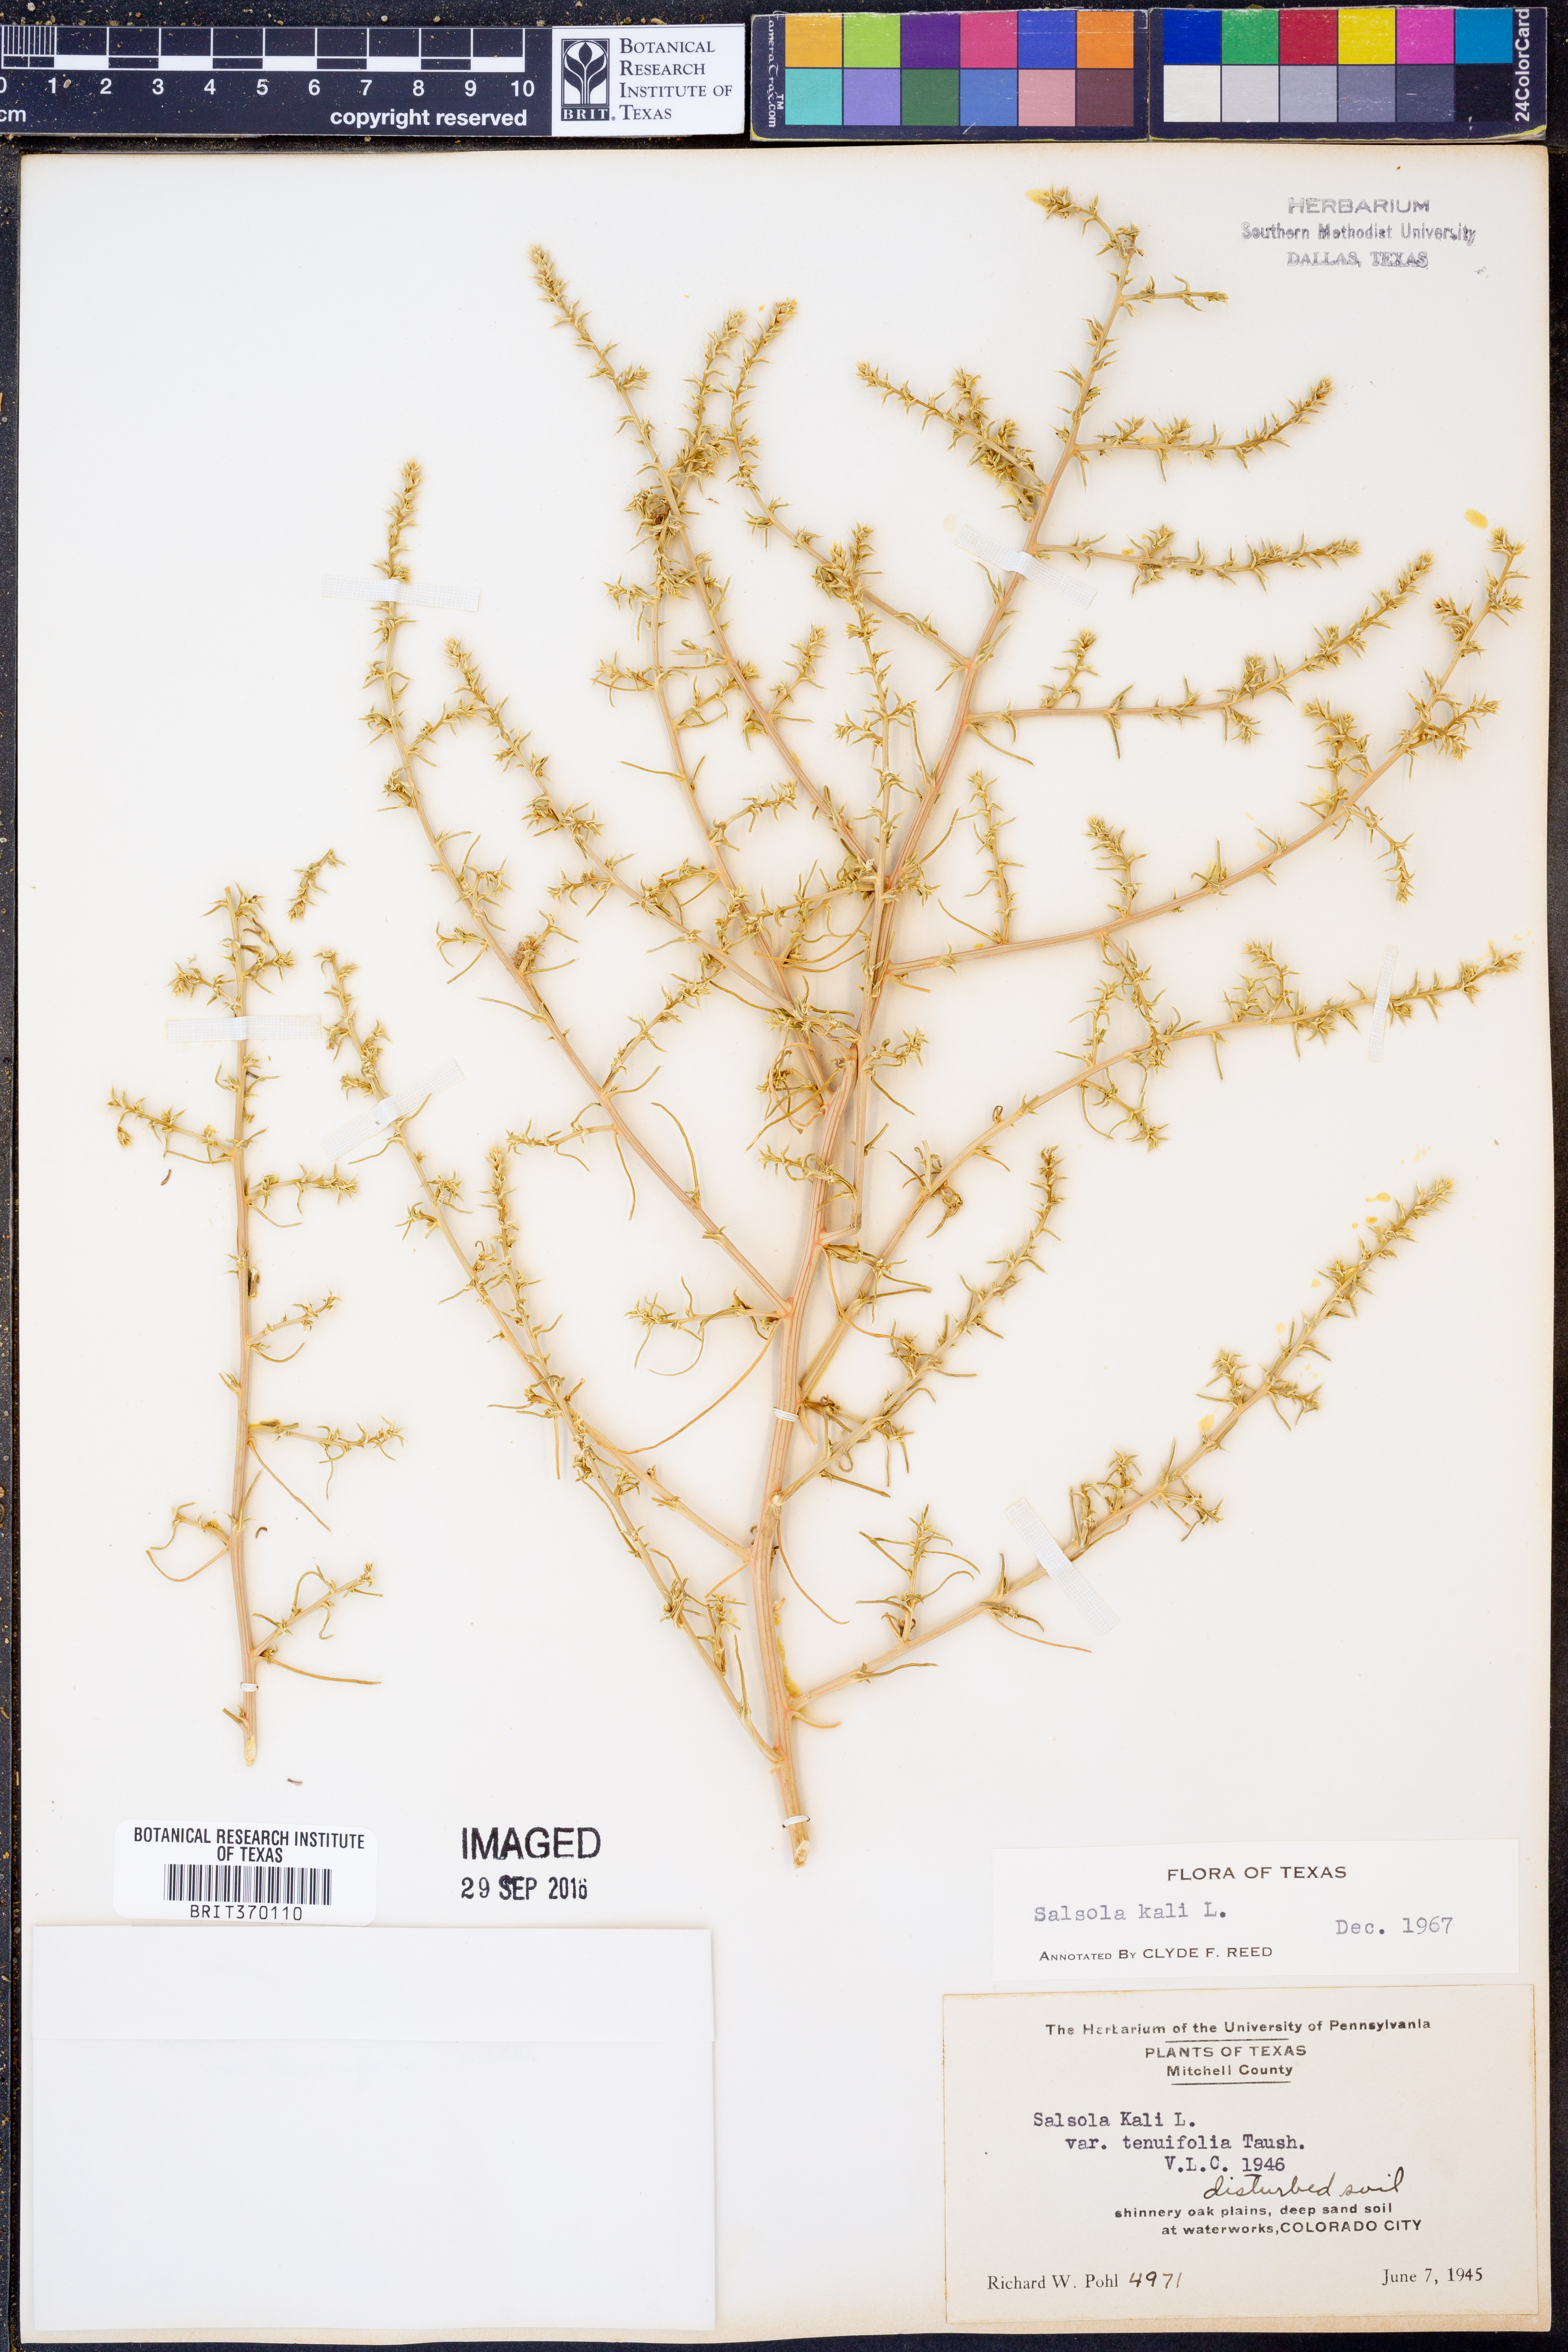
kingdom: Plantae
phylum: Tracheophyta
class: Magnoliopsida
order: Caryophyllales
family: Amaranthaceae
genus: Salsola
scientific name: Salsola tragus
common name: Prickly russian thistle
